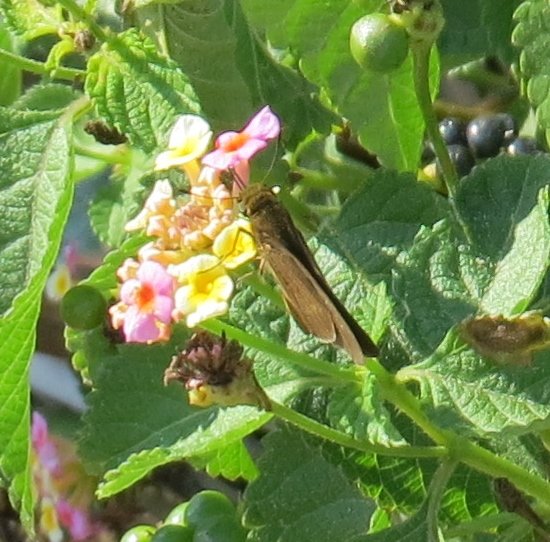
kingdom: Animalia
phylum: Arthropoda
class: Insecta
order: Lepidoptera
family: Hesperiidae
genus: Panoquina
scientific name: Panoquina ocola
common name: Ocola Skipper
